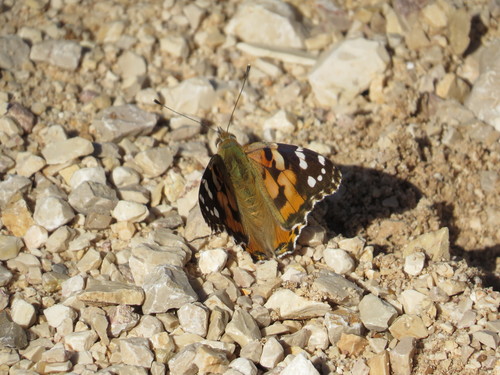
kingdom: Animalia
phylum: Arthropoda
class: Insecta
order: Lepidoptera
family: Nymphalidae
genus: Vanessa
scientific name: Vanessa cardui
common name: Painted lady
